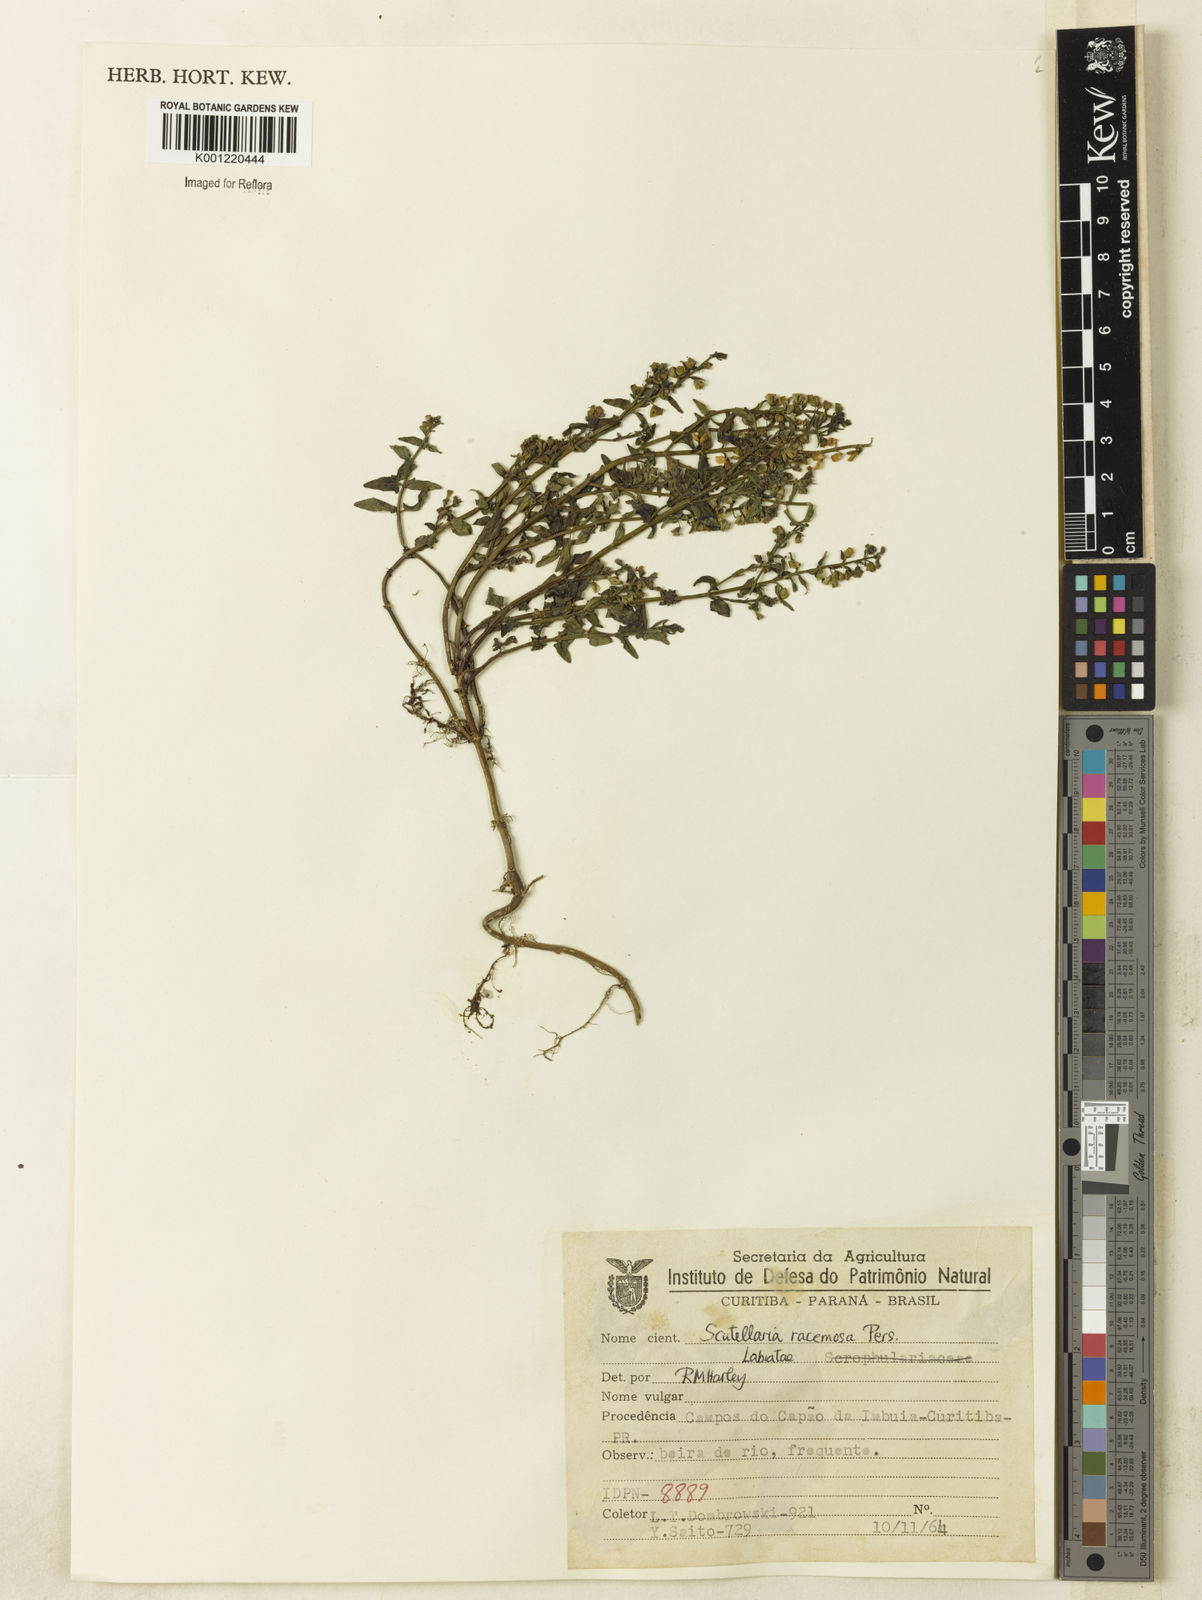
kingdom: Plantae
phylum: Tracheophyta
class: Magnoliopsida
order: Lamiales
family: Lamiaceae
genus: Scutellaria
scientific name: Scutellaria racemosa
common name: South american skullcap
